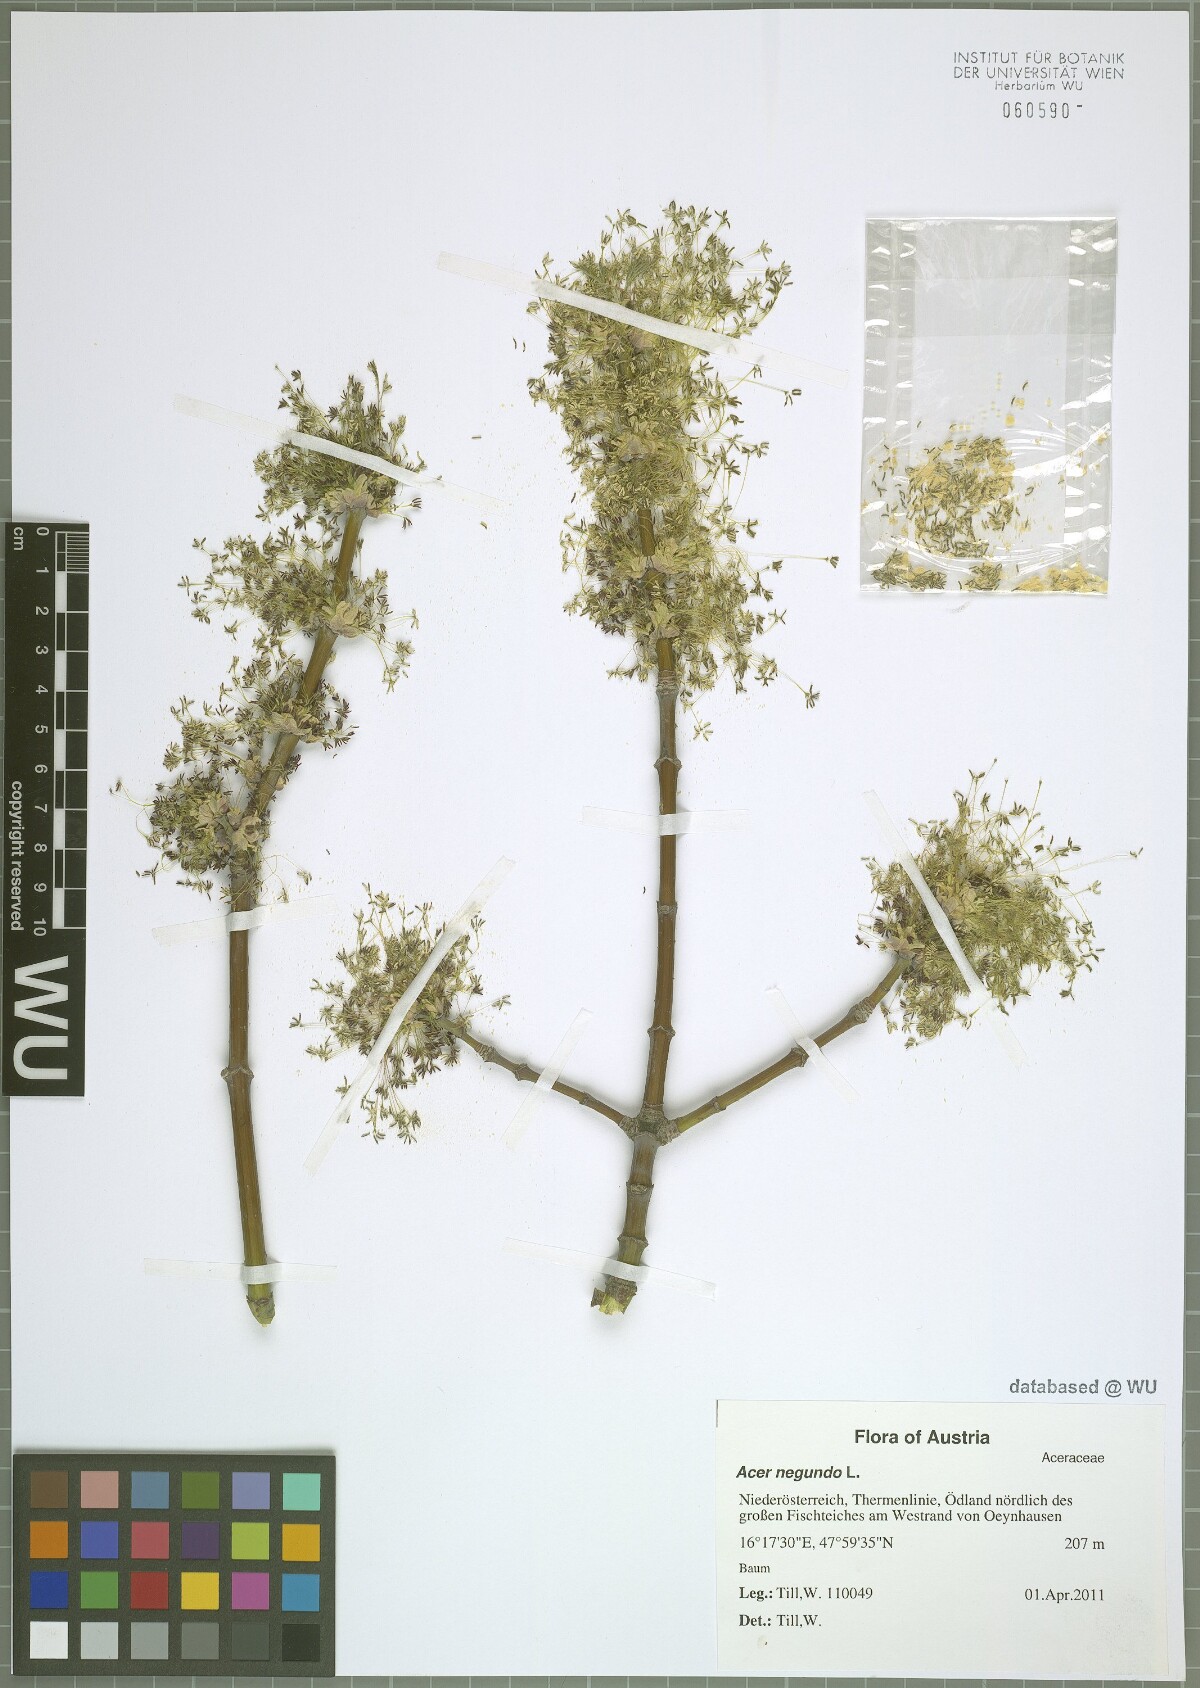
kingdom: Plantae
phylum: Tracheophyta
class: Magnoliopsida
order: Sapindales
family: Sapindaceae
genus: Acer
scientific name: Acer negundo
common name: Ashleaf maple
